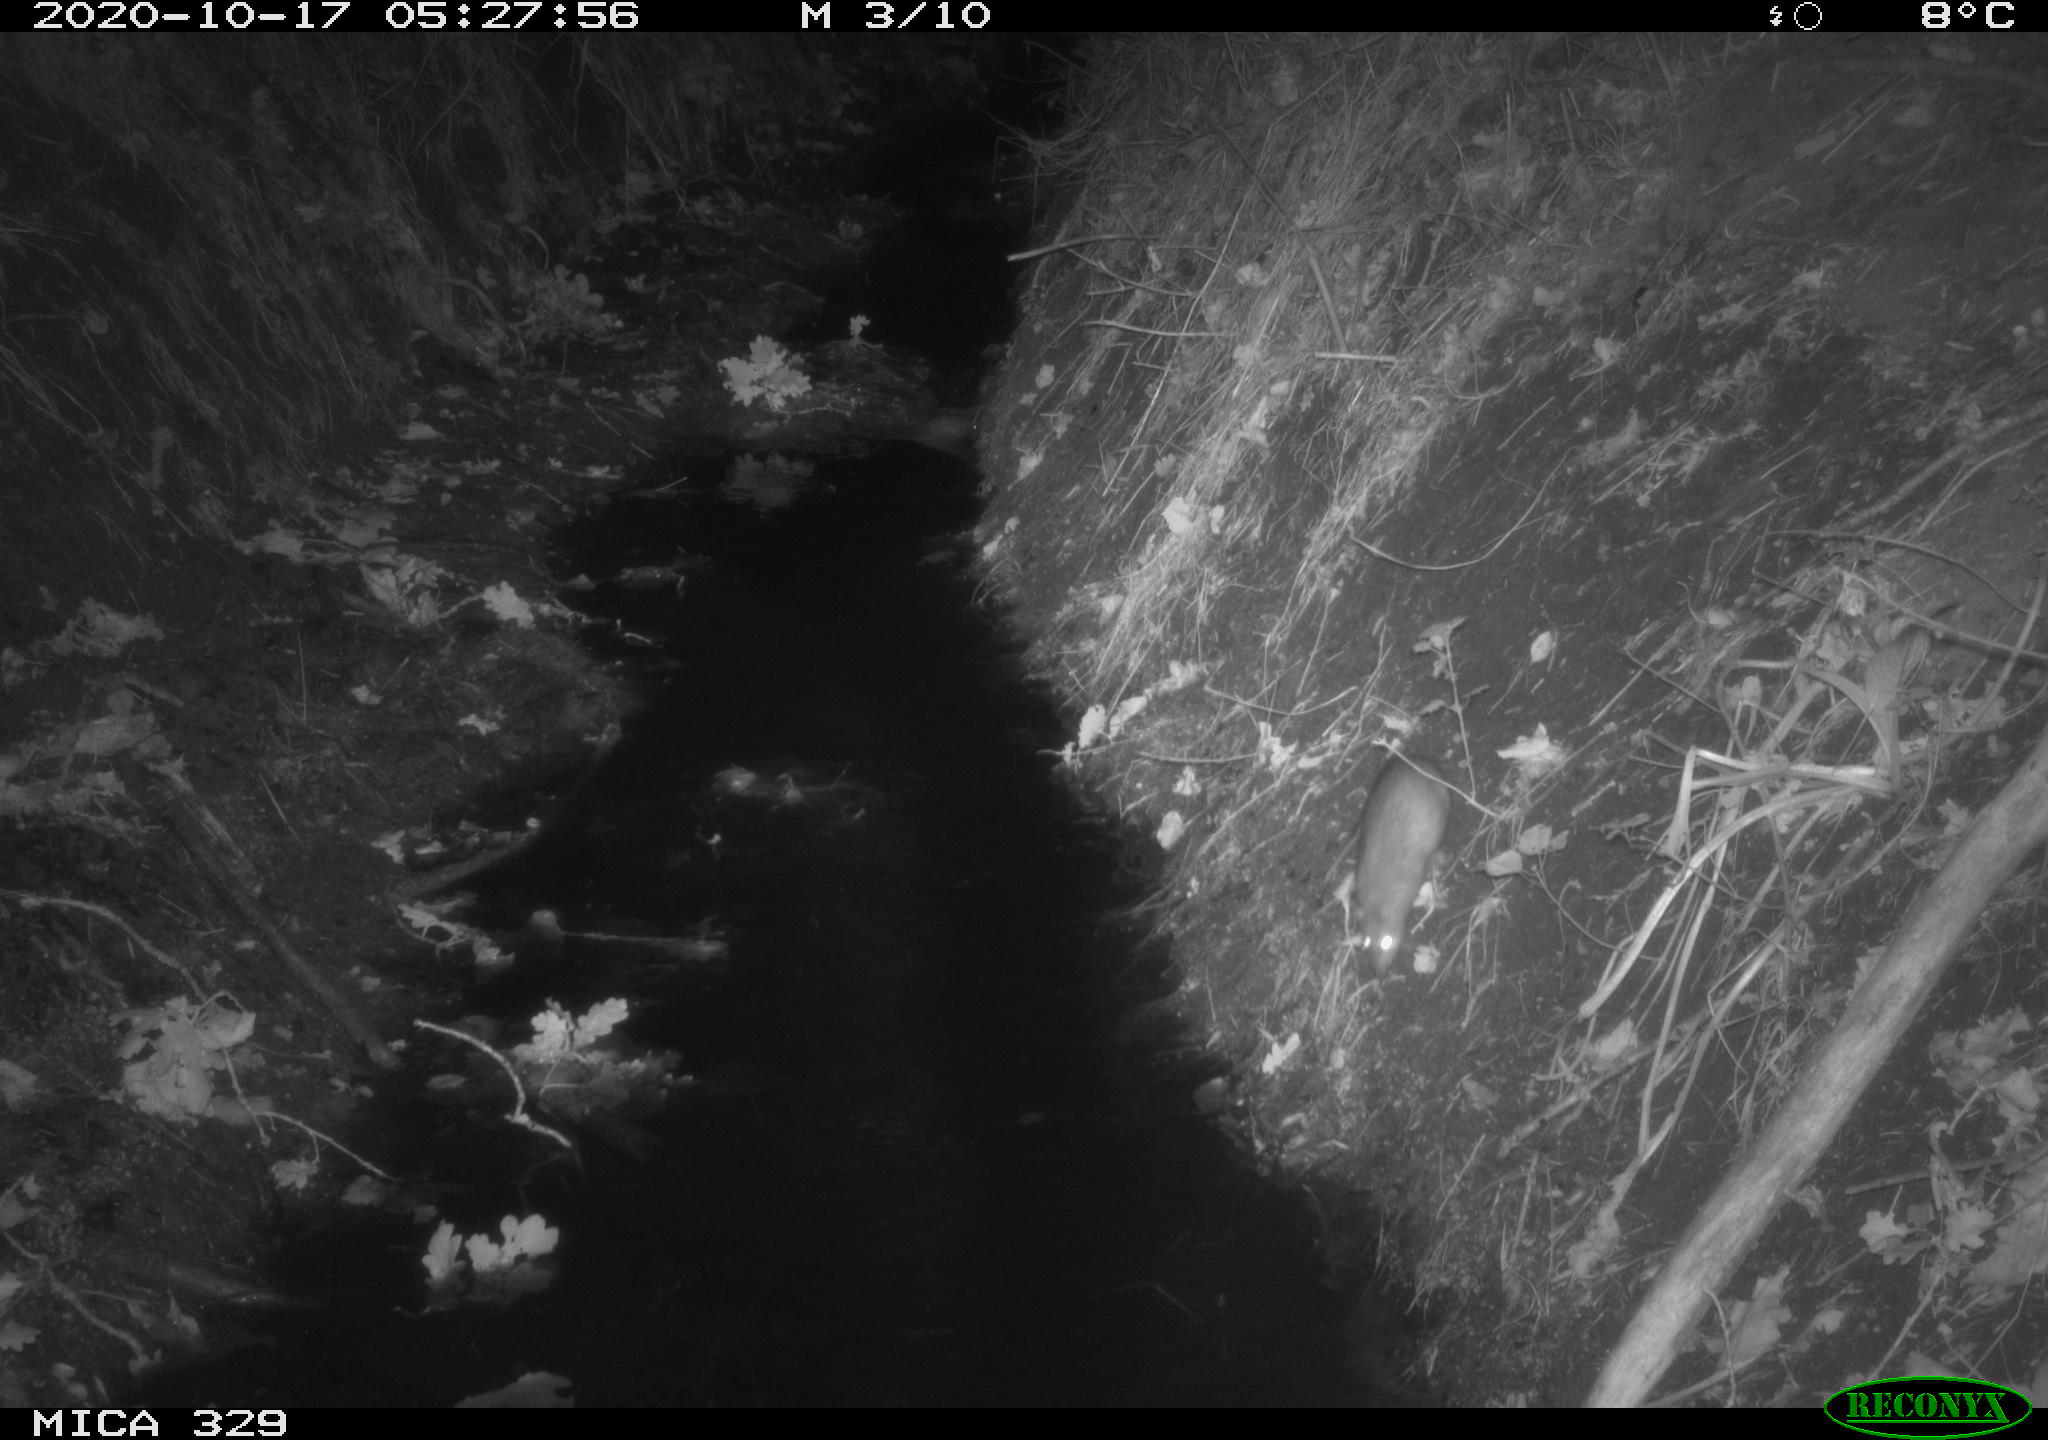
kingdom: Animalia
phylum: Chordata
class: Mammalia
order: Rodentia
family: Muridae
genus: Rattus
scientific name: Rattus norvegicus
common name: Brown rat
